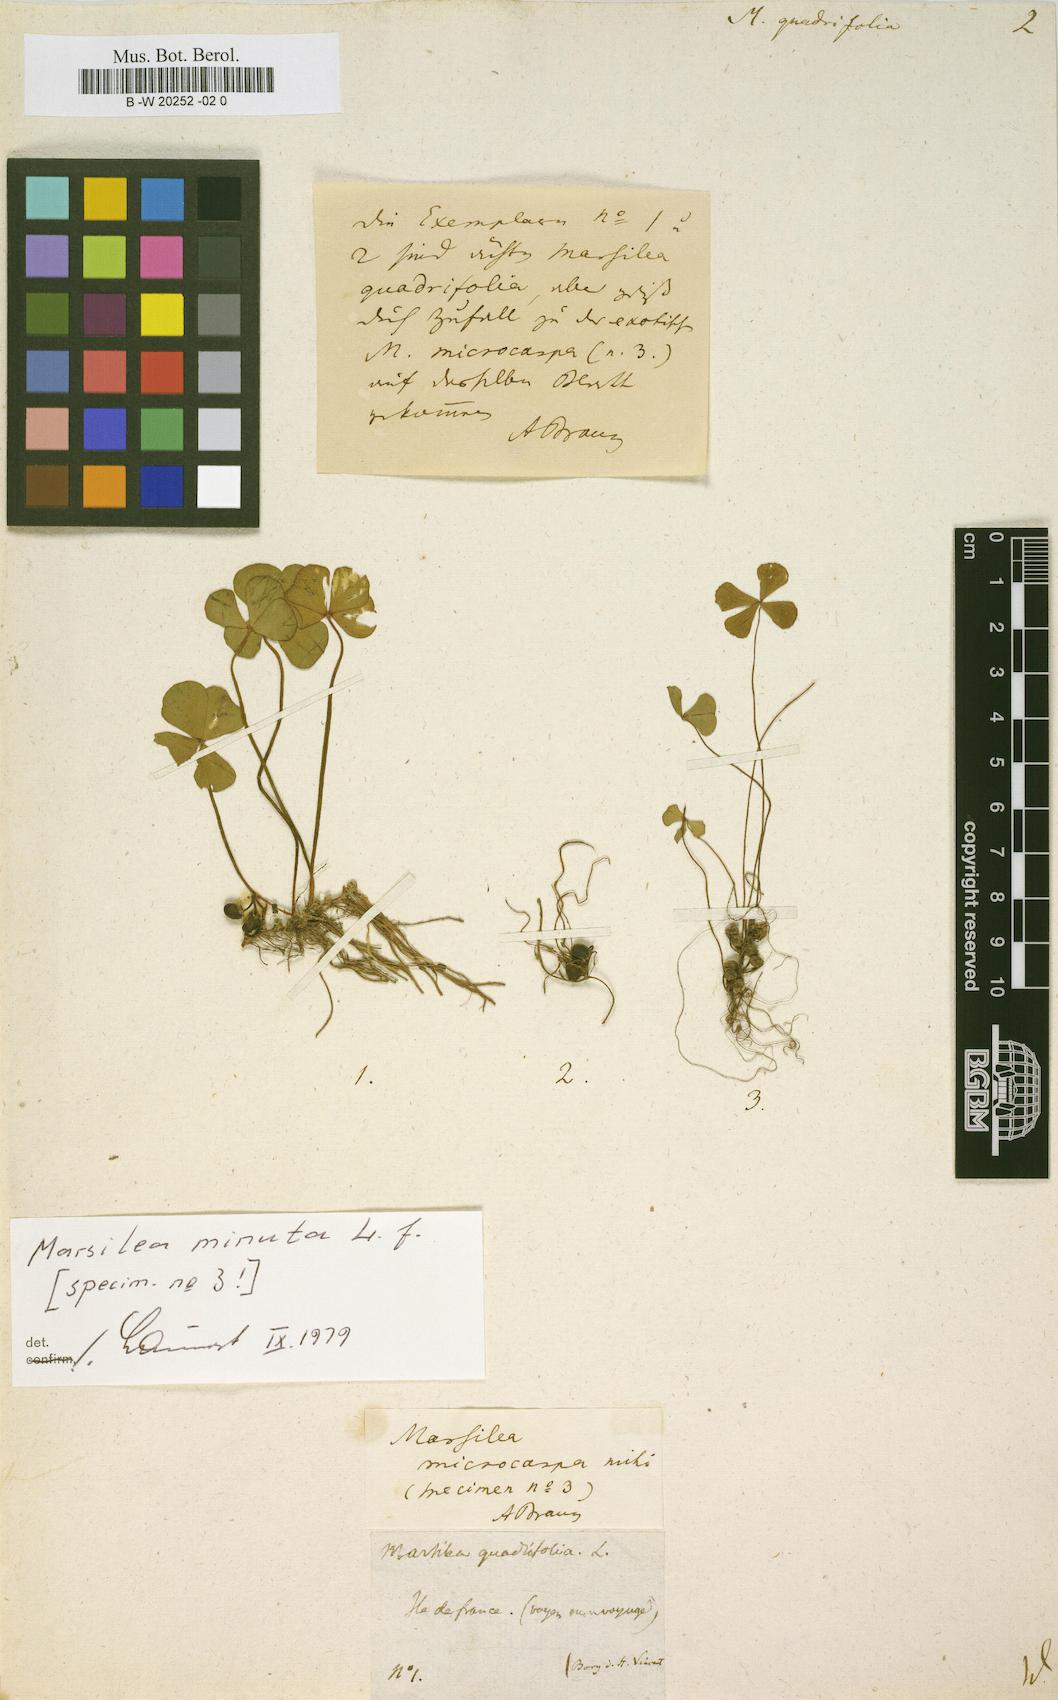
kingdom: Plantae
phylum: Tracheophyta
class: Polypodiopsida
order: Salviniales
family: Marsileaceae
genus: Marsilea
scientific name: Marsilea quadrifolia
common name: Water shamrock
